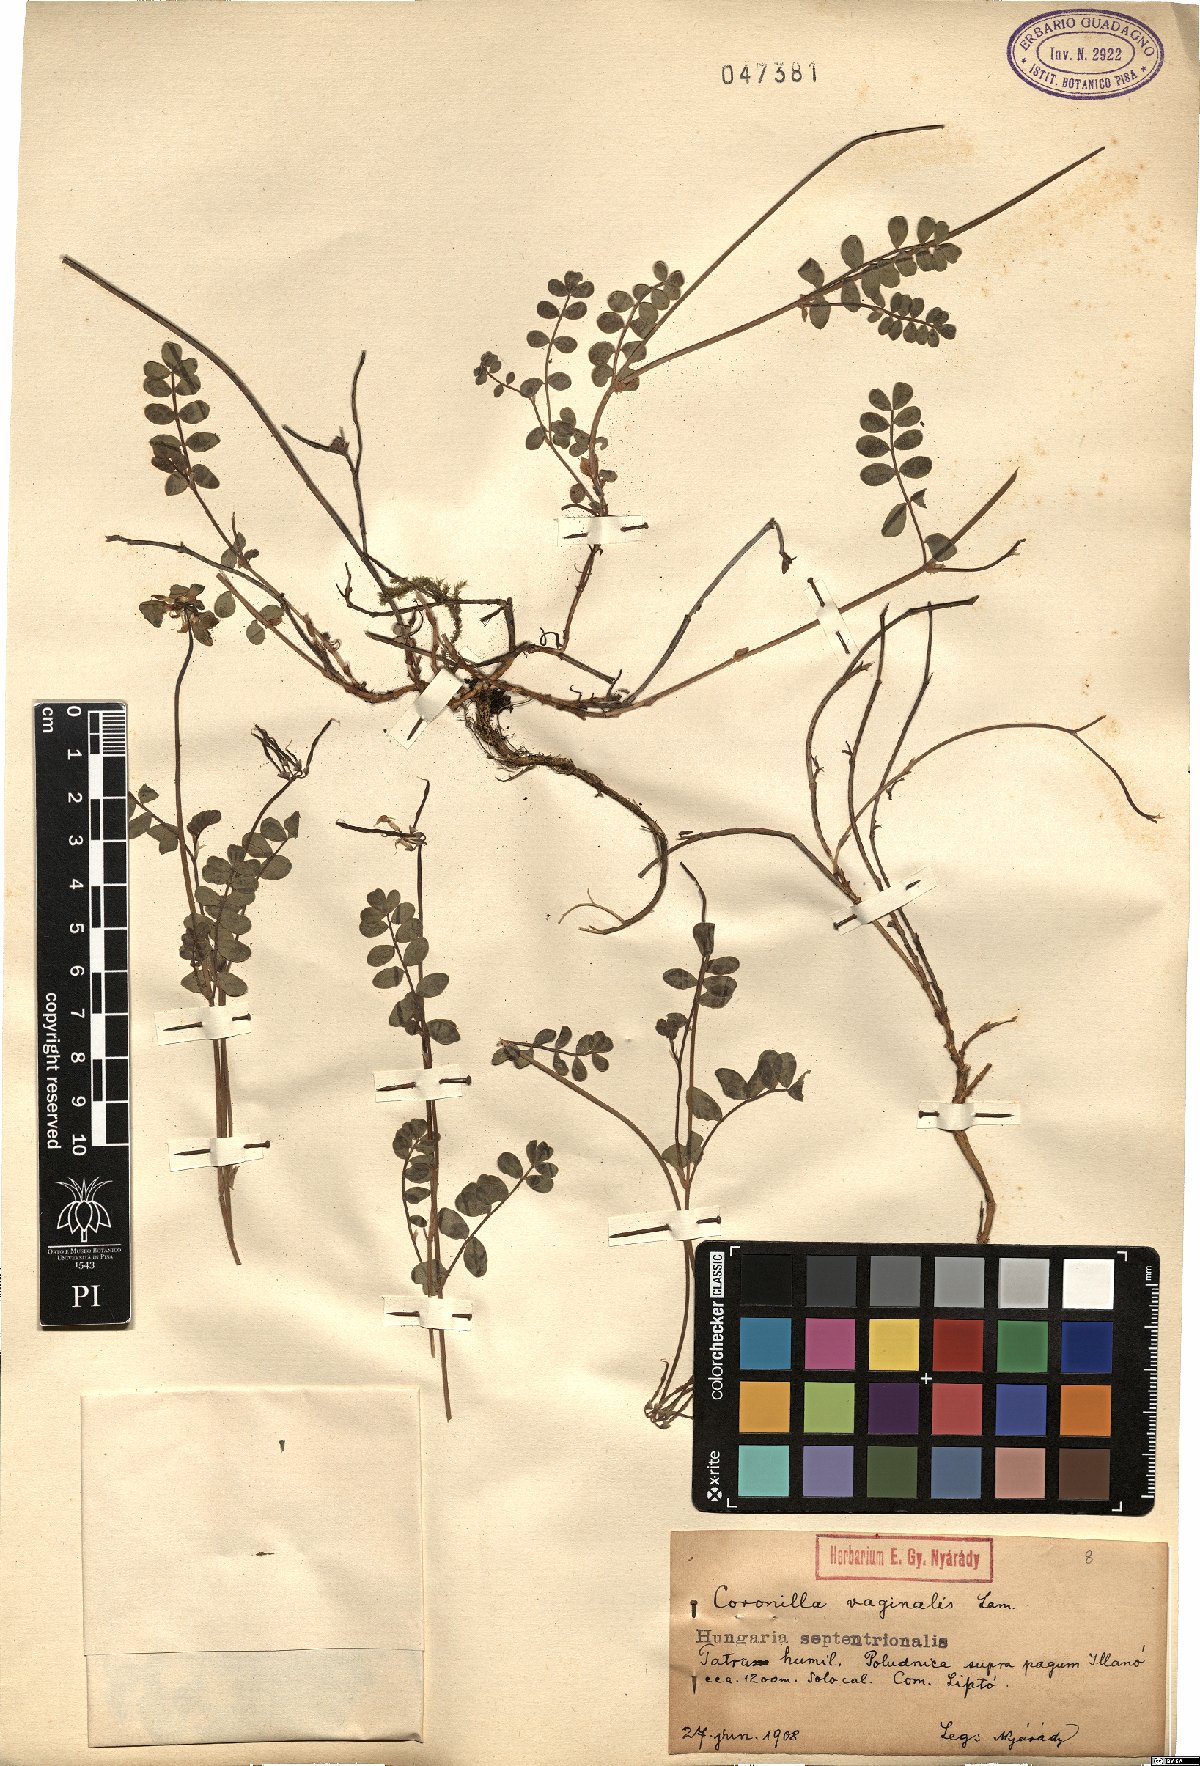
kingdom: Plantae
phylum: Tracheophyta
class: Magnoliopsida
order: Fabales
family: Fabaceae
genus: Coronilla
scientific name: Coronilla vaginalis
